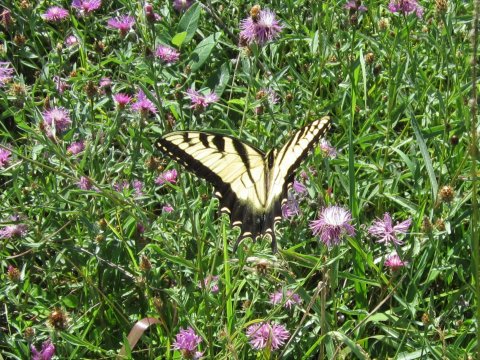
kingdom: Animalia
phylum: Arthropoda
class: Insecta
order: Lepidoptera
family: Papilionidae
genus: Pterourus
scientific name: Pterourus glaucus
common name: Eastern Tiger Swallowtail
